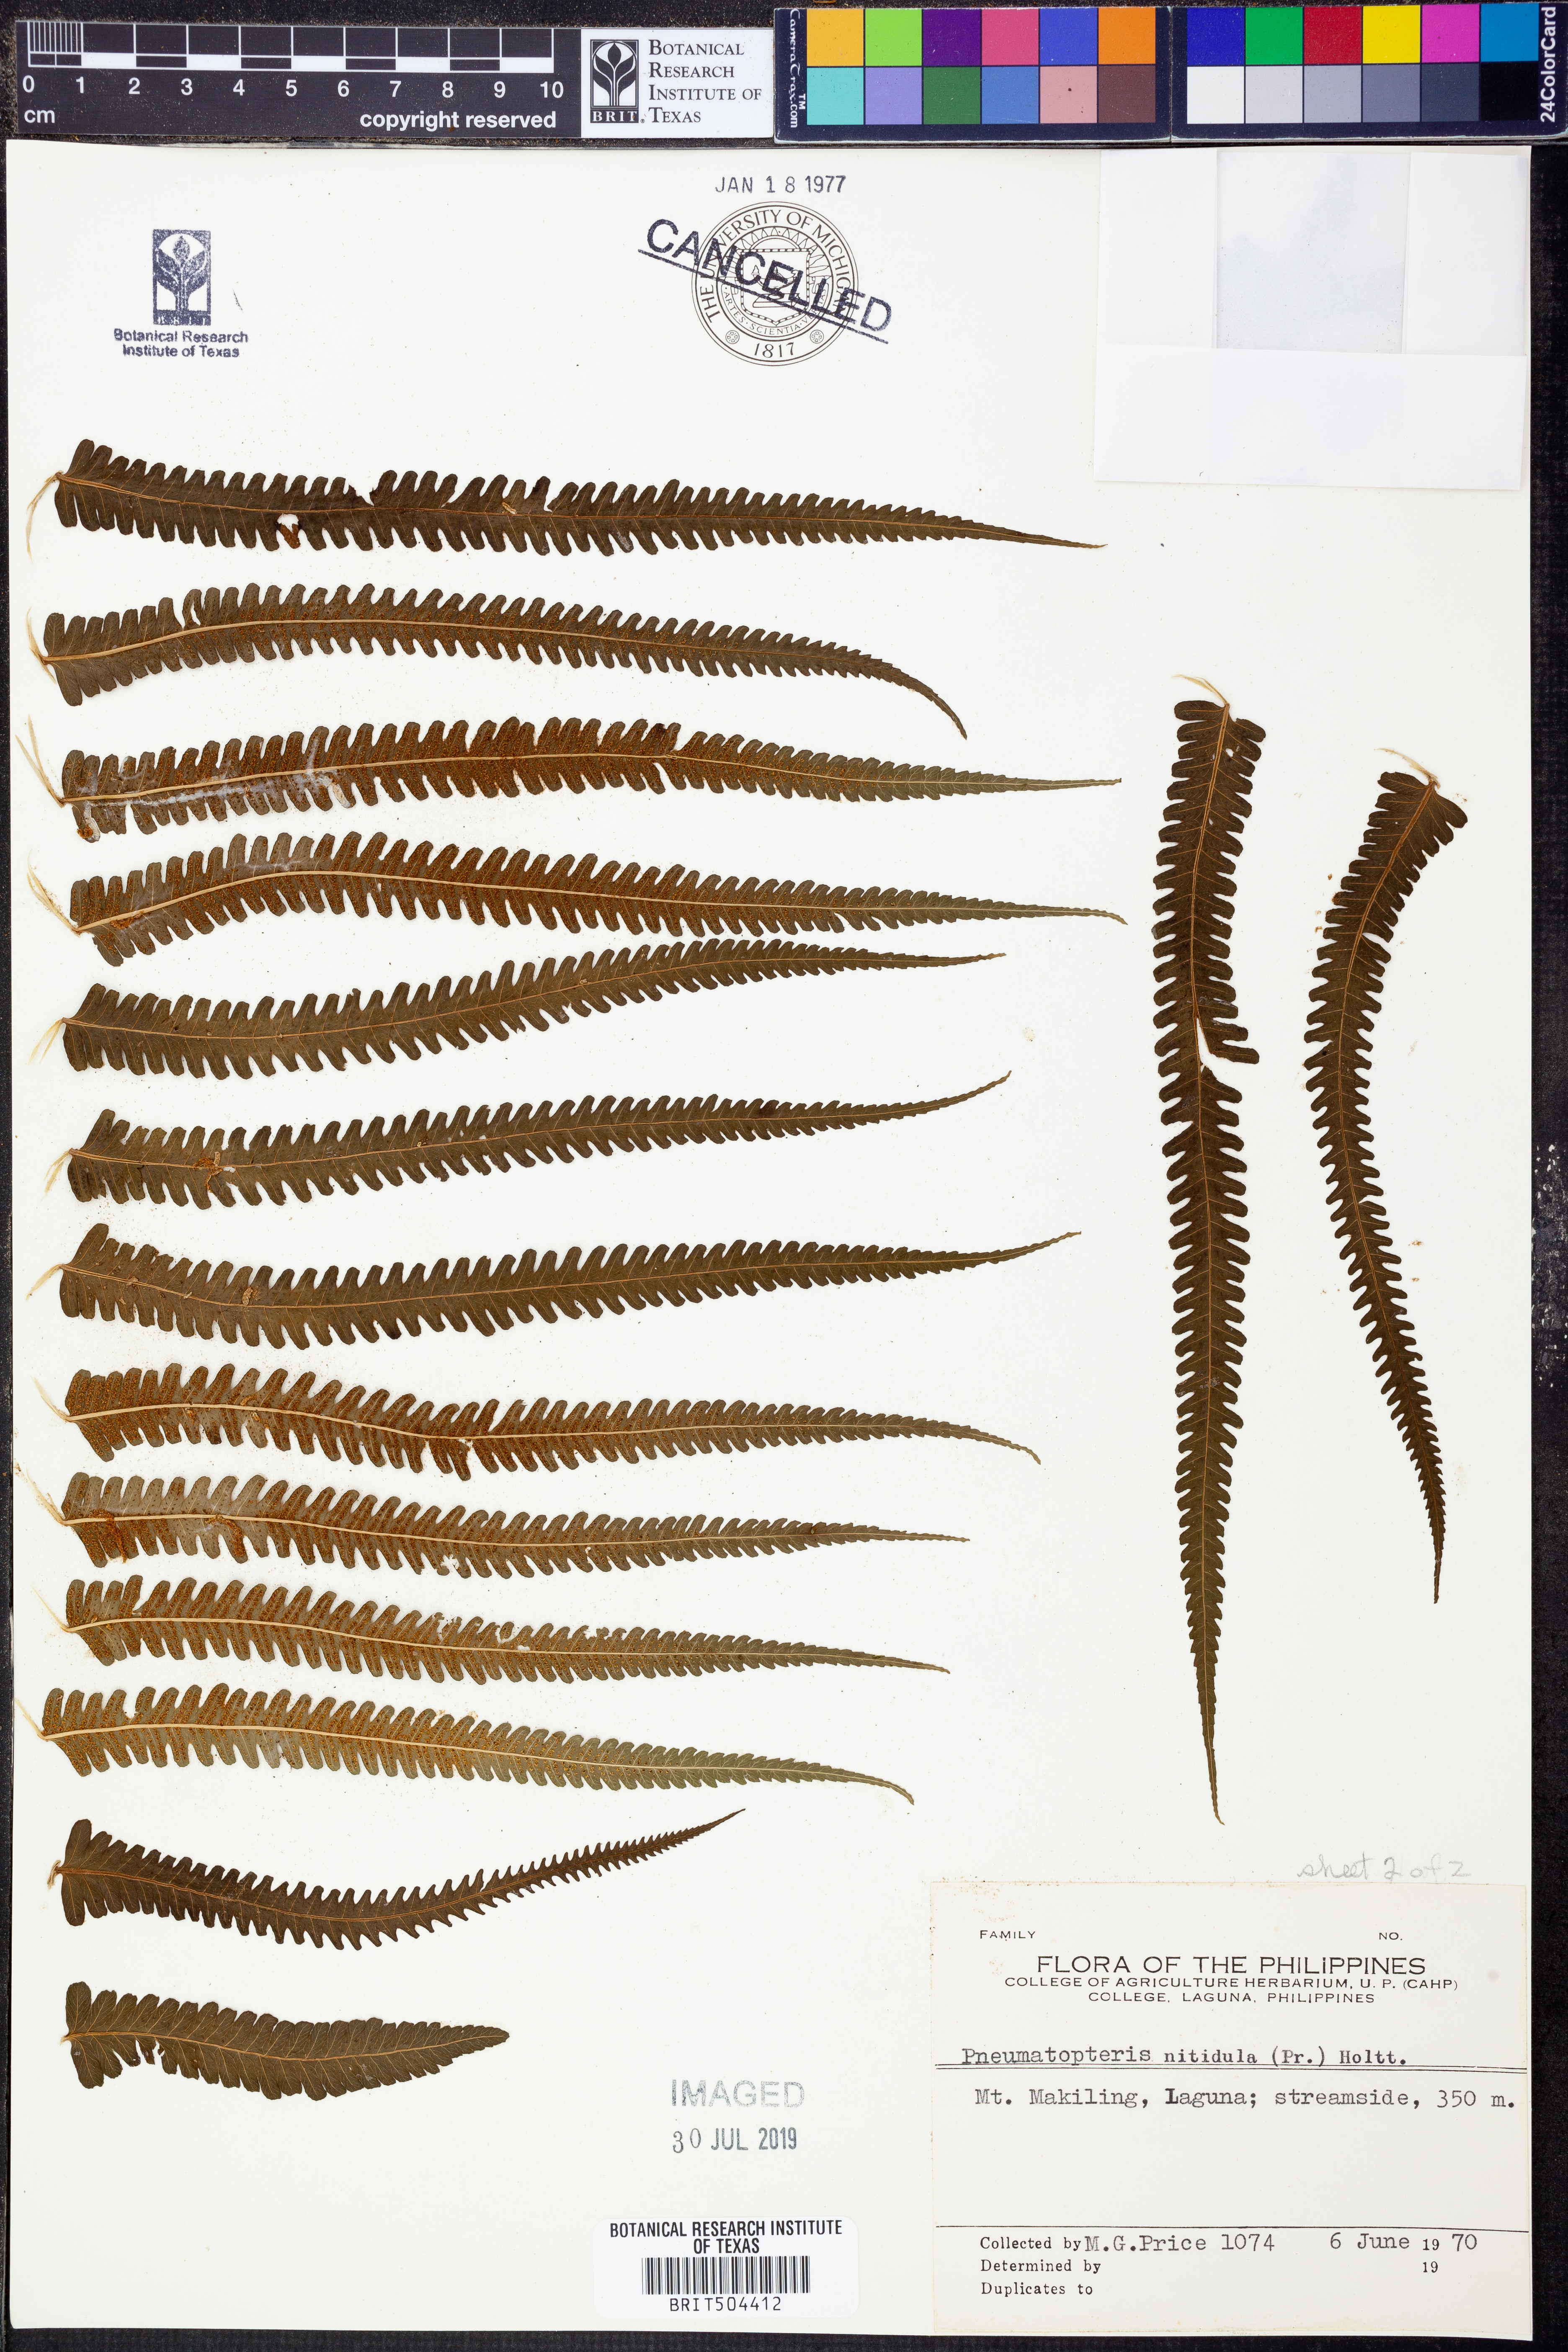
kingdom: Plantae
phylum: Tracheophyta
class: Polypodiopsida
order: Polypodiales
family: Thelypteridaceae
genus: Reholttumia
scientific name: Reholttumia nitidula
